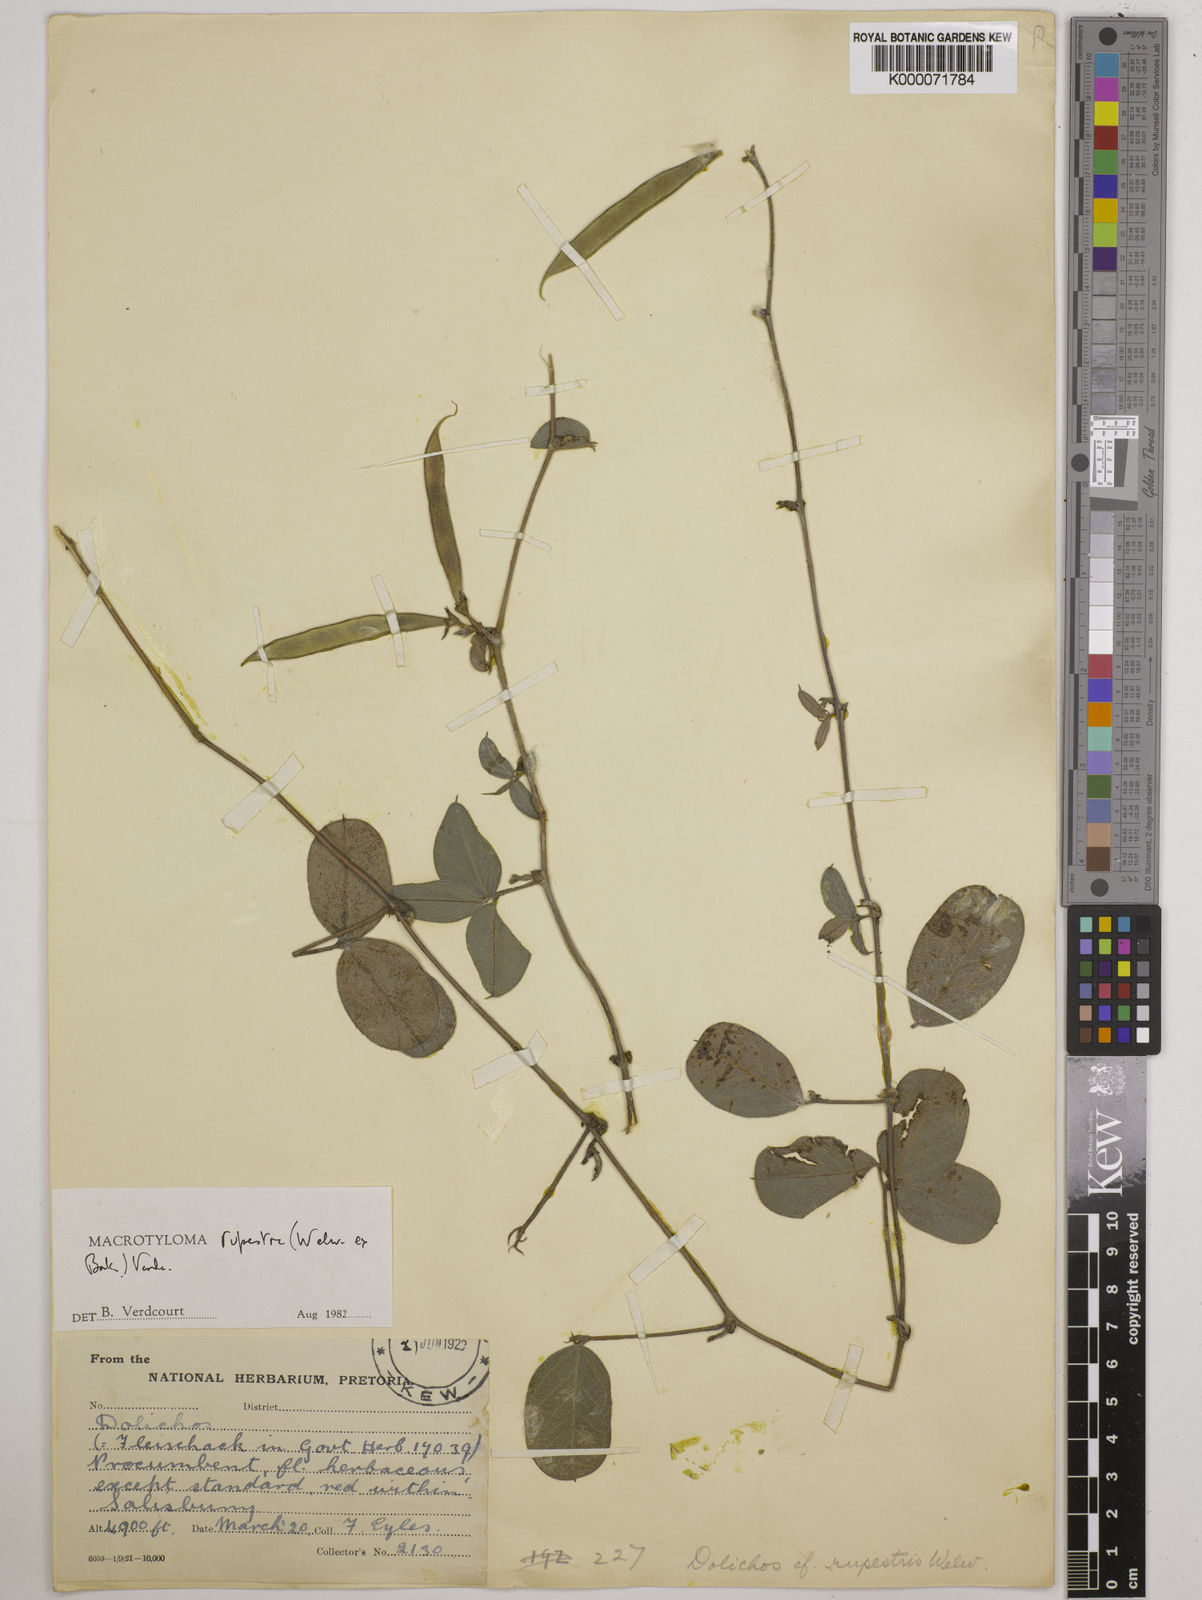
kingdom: Plantae
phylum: Tracheophyta
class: Magnoliopsida
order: Fabales
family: Fabaceae
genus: Macrotyloma
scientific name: Macrotyloma rupestre
